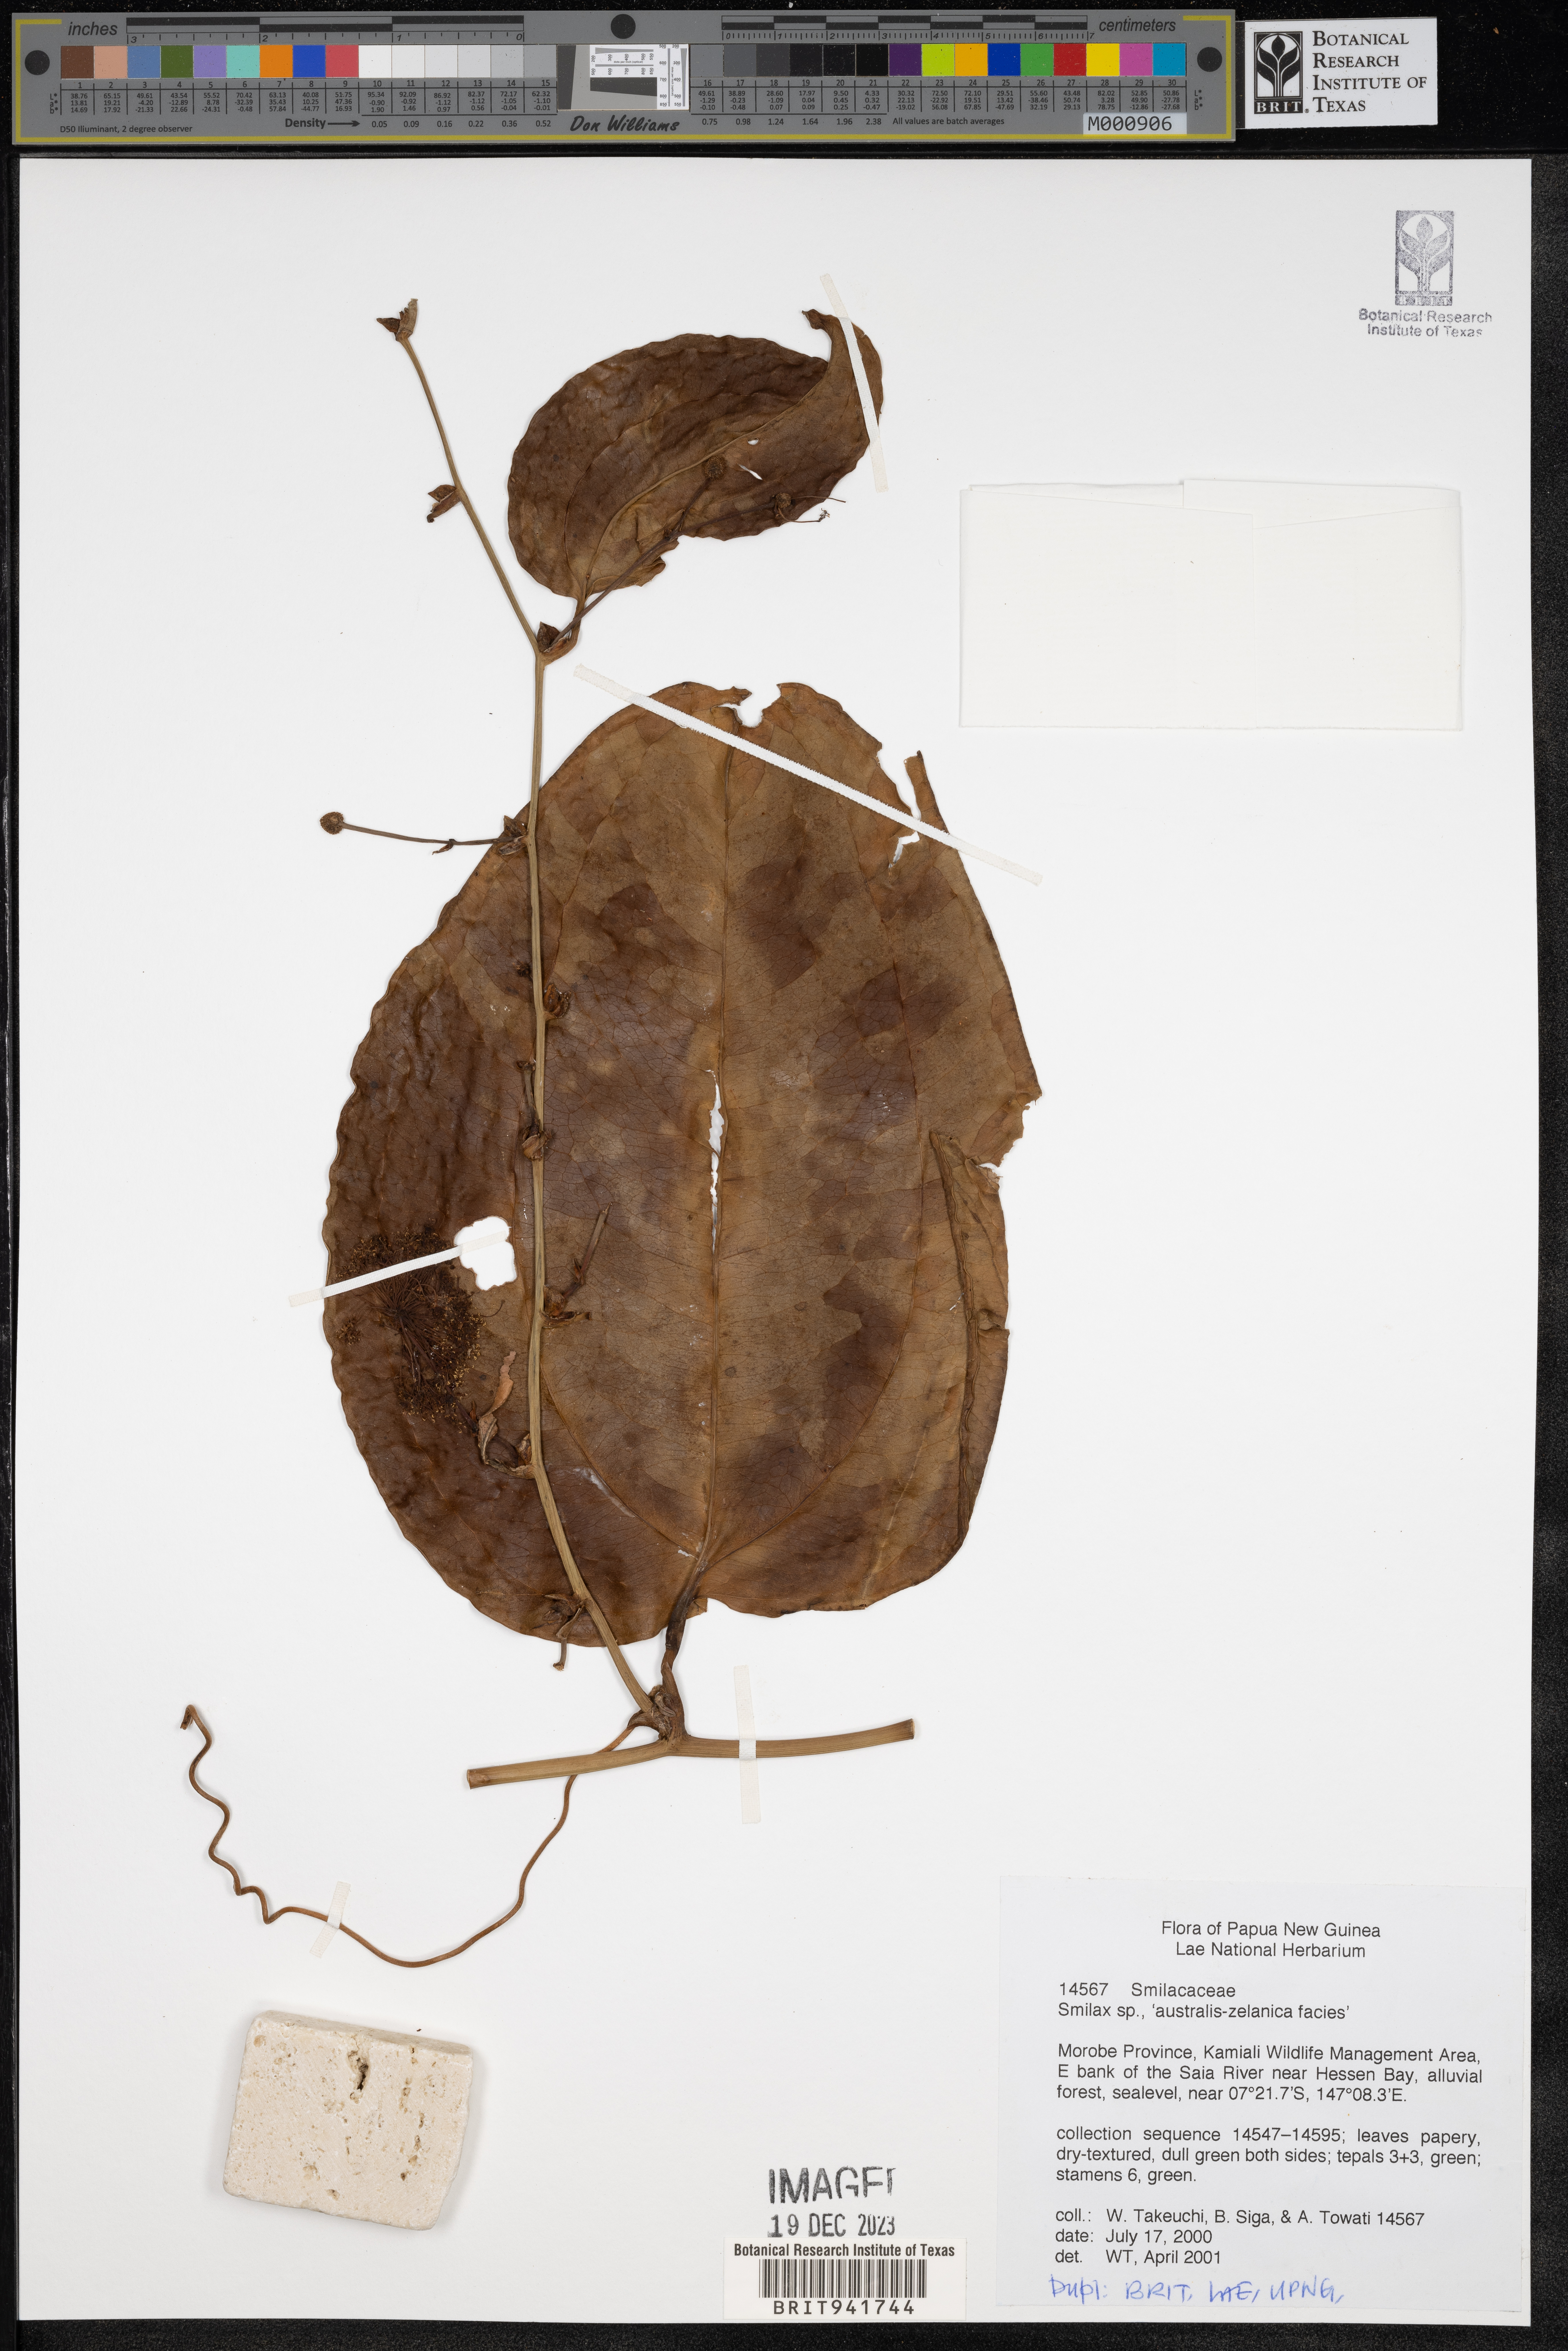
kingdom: Plantae
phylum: Tracheophyta
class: Liliopsida
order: Liliales
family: Smilacaceae
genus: Smilax
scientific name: Smilax
